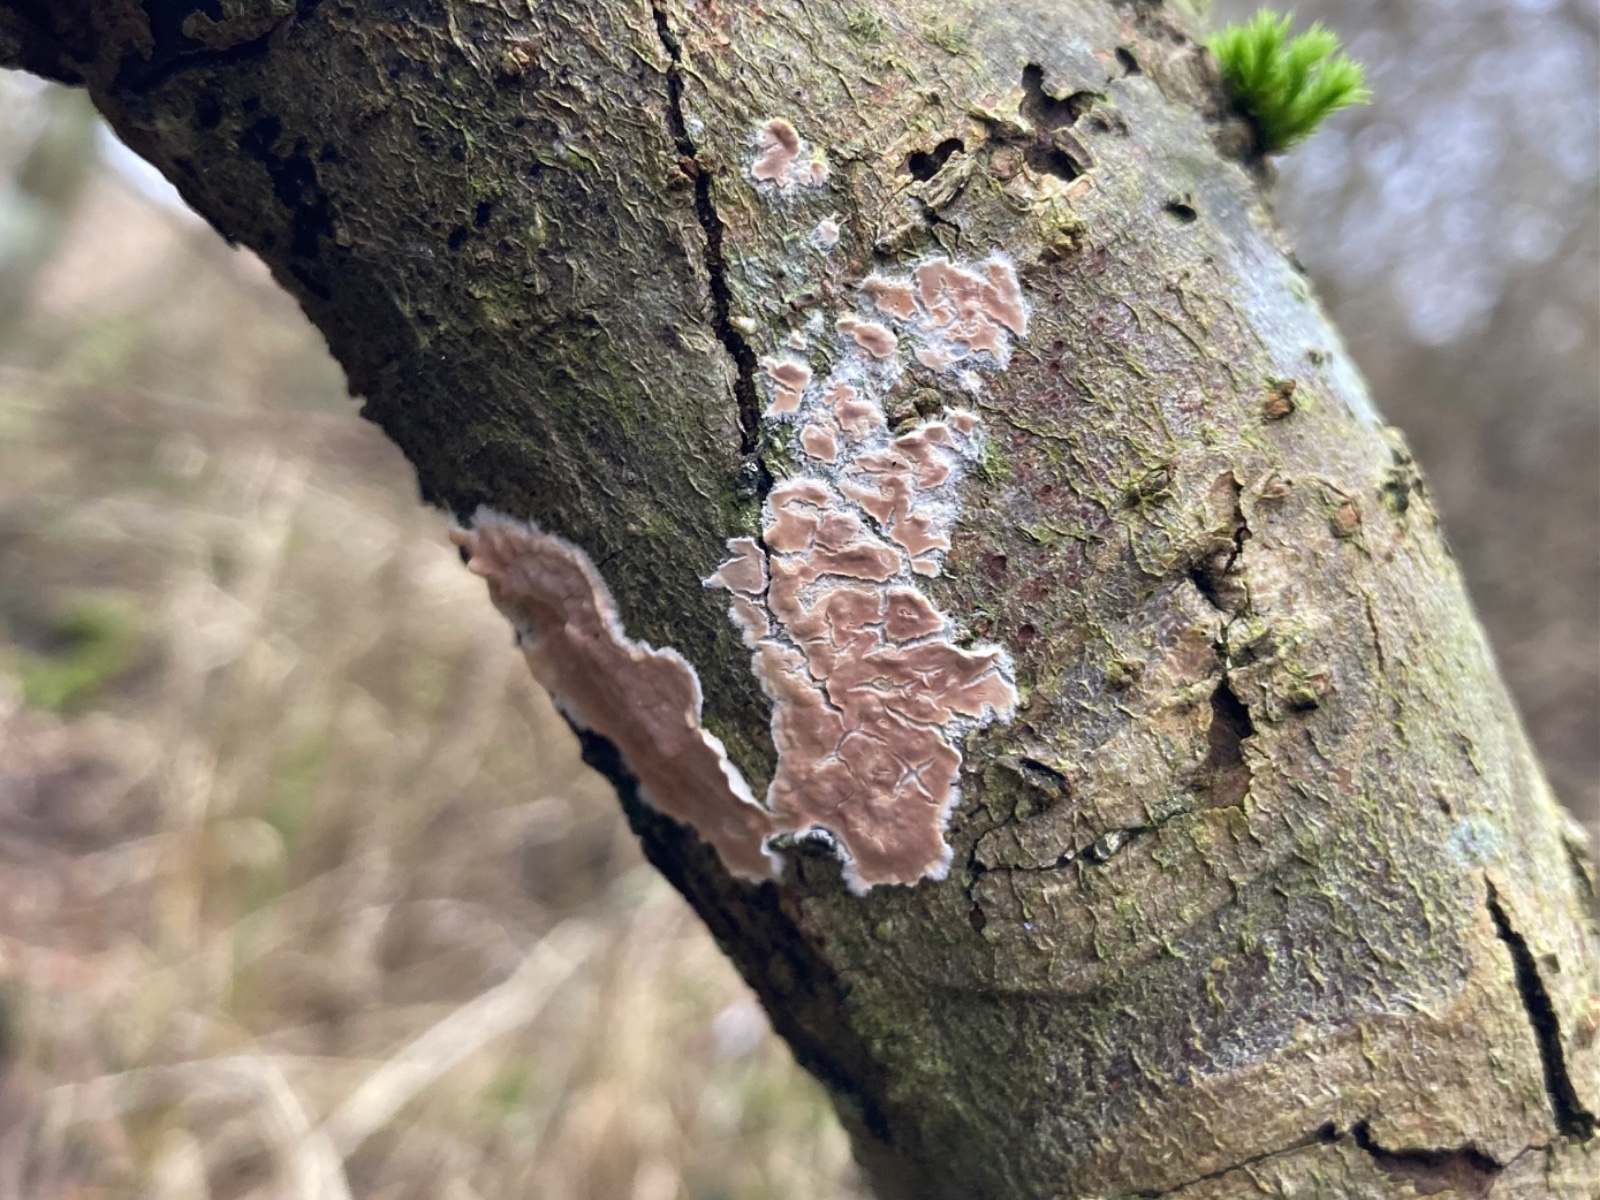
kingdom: Fungi
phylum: Basidiomycota
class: Agaricomycetes
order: Agaricales
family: Physalacriaceae
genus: Cylindrobasidium
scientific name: Cylindrobasidium evolvens
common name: sprækkehinde
